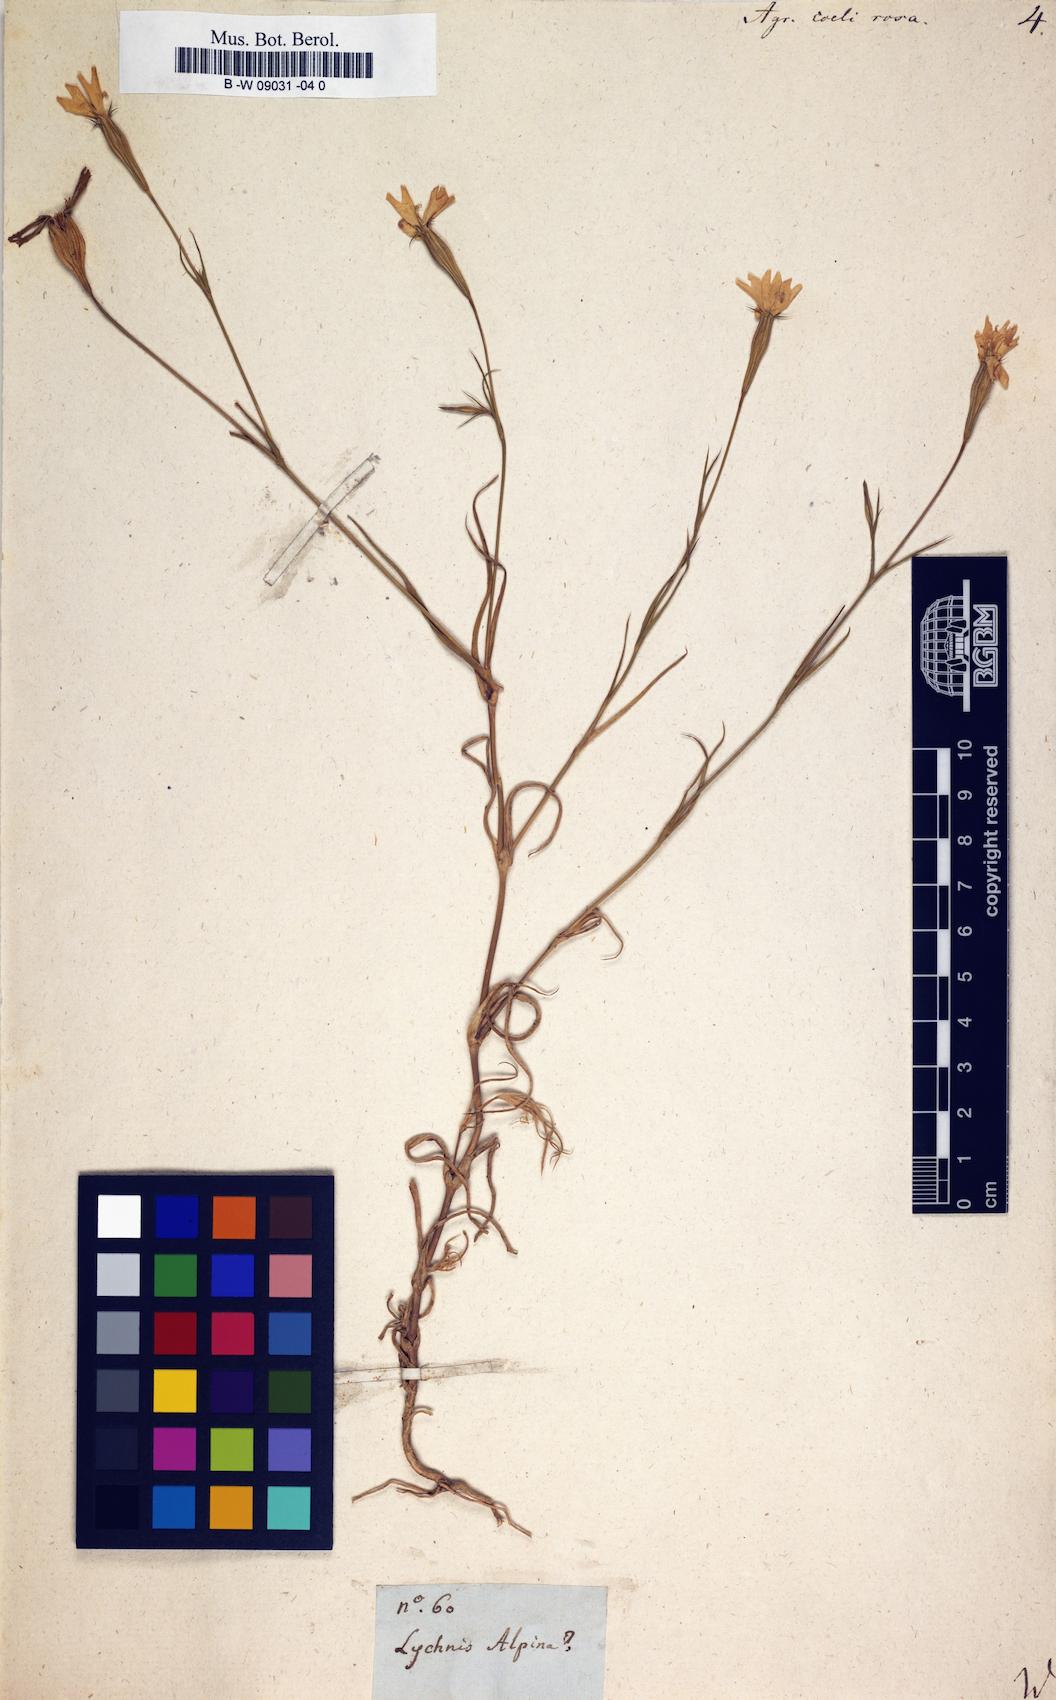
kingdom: Plantae
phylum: Tracheophyta
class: Magnoliopsida
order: Caryophyllales
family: Caryophyllaceae
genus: Eudianthe
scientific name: Eudianthe coeli-rosa
